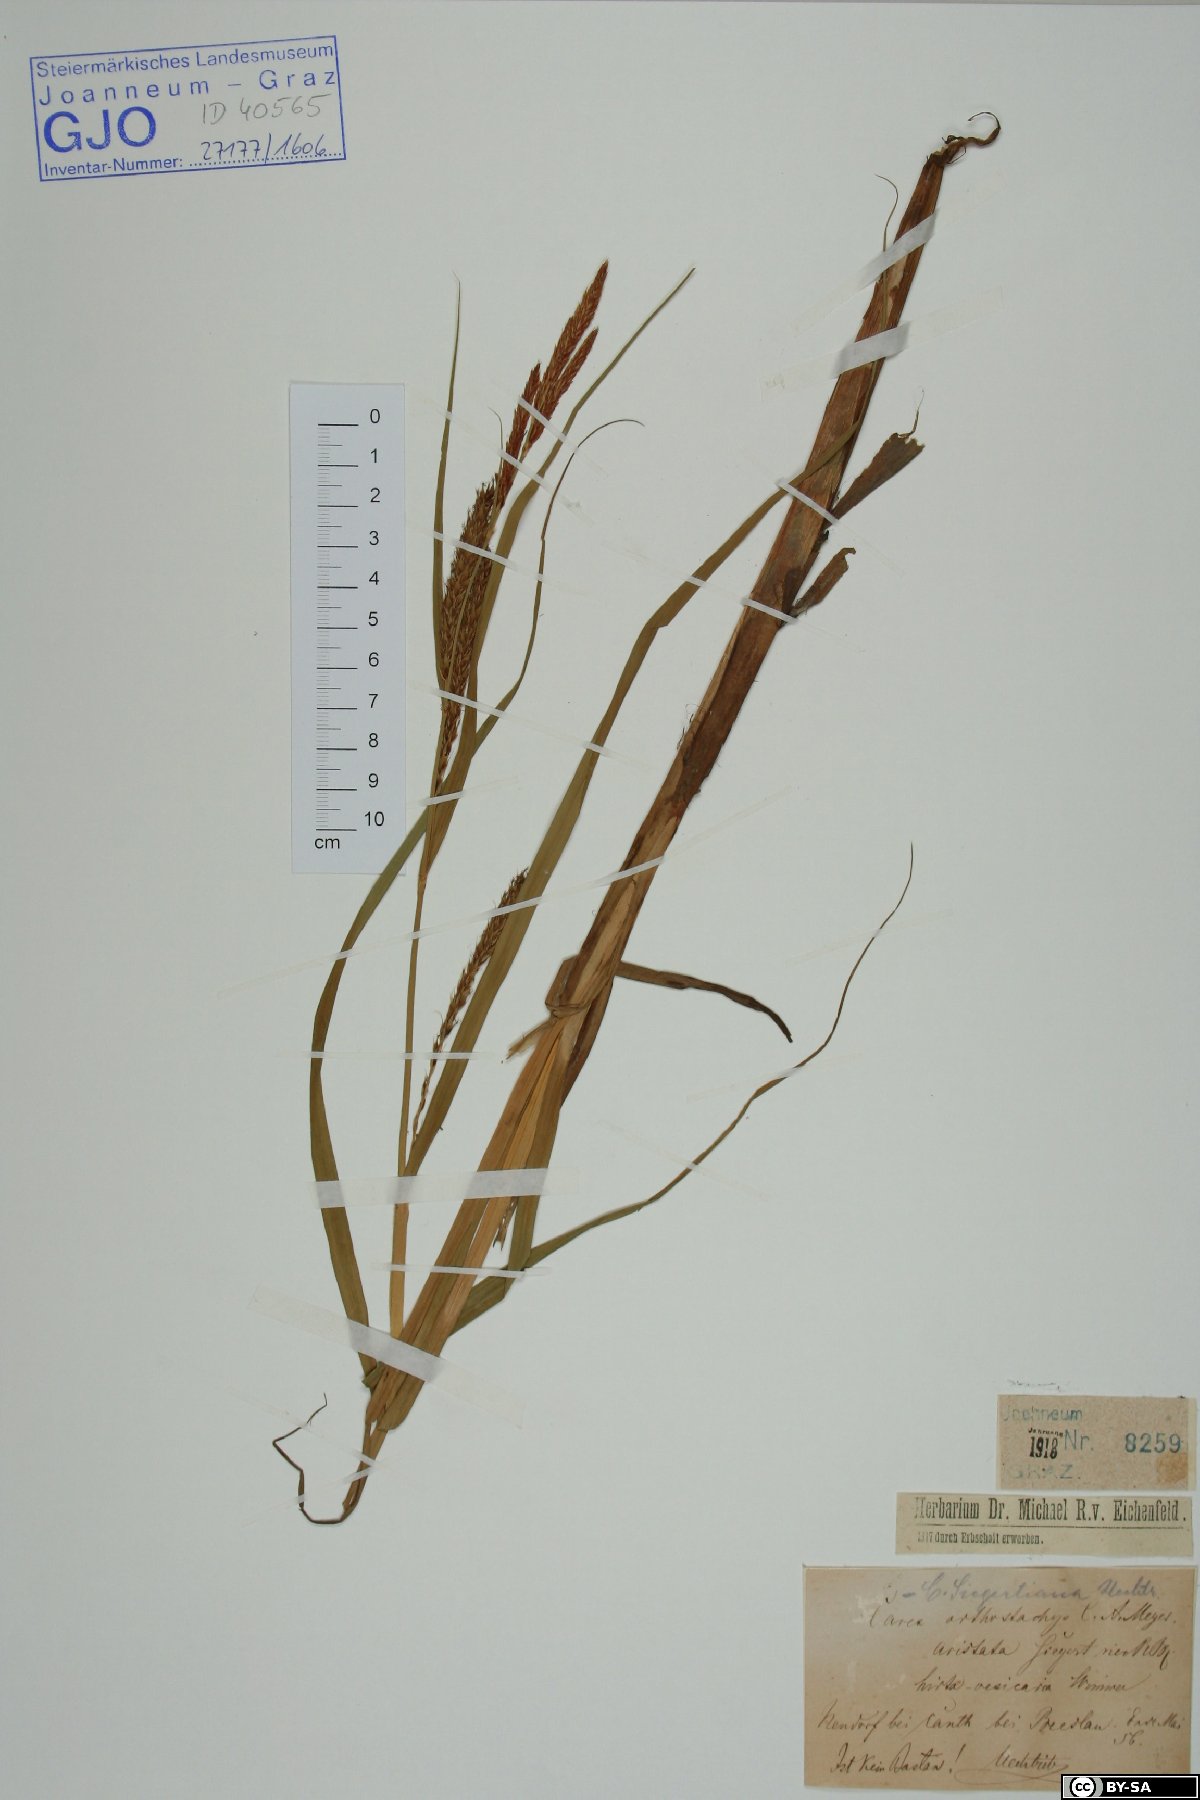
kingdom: Plantae
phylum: Tracheophyta
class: Liliopsida
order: Poales
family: Cyperaceae
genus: Carex
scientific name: Carex atherodes
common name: Wheat sedge
